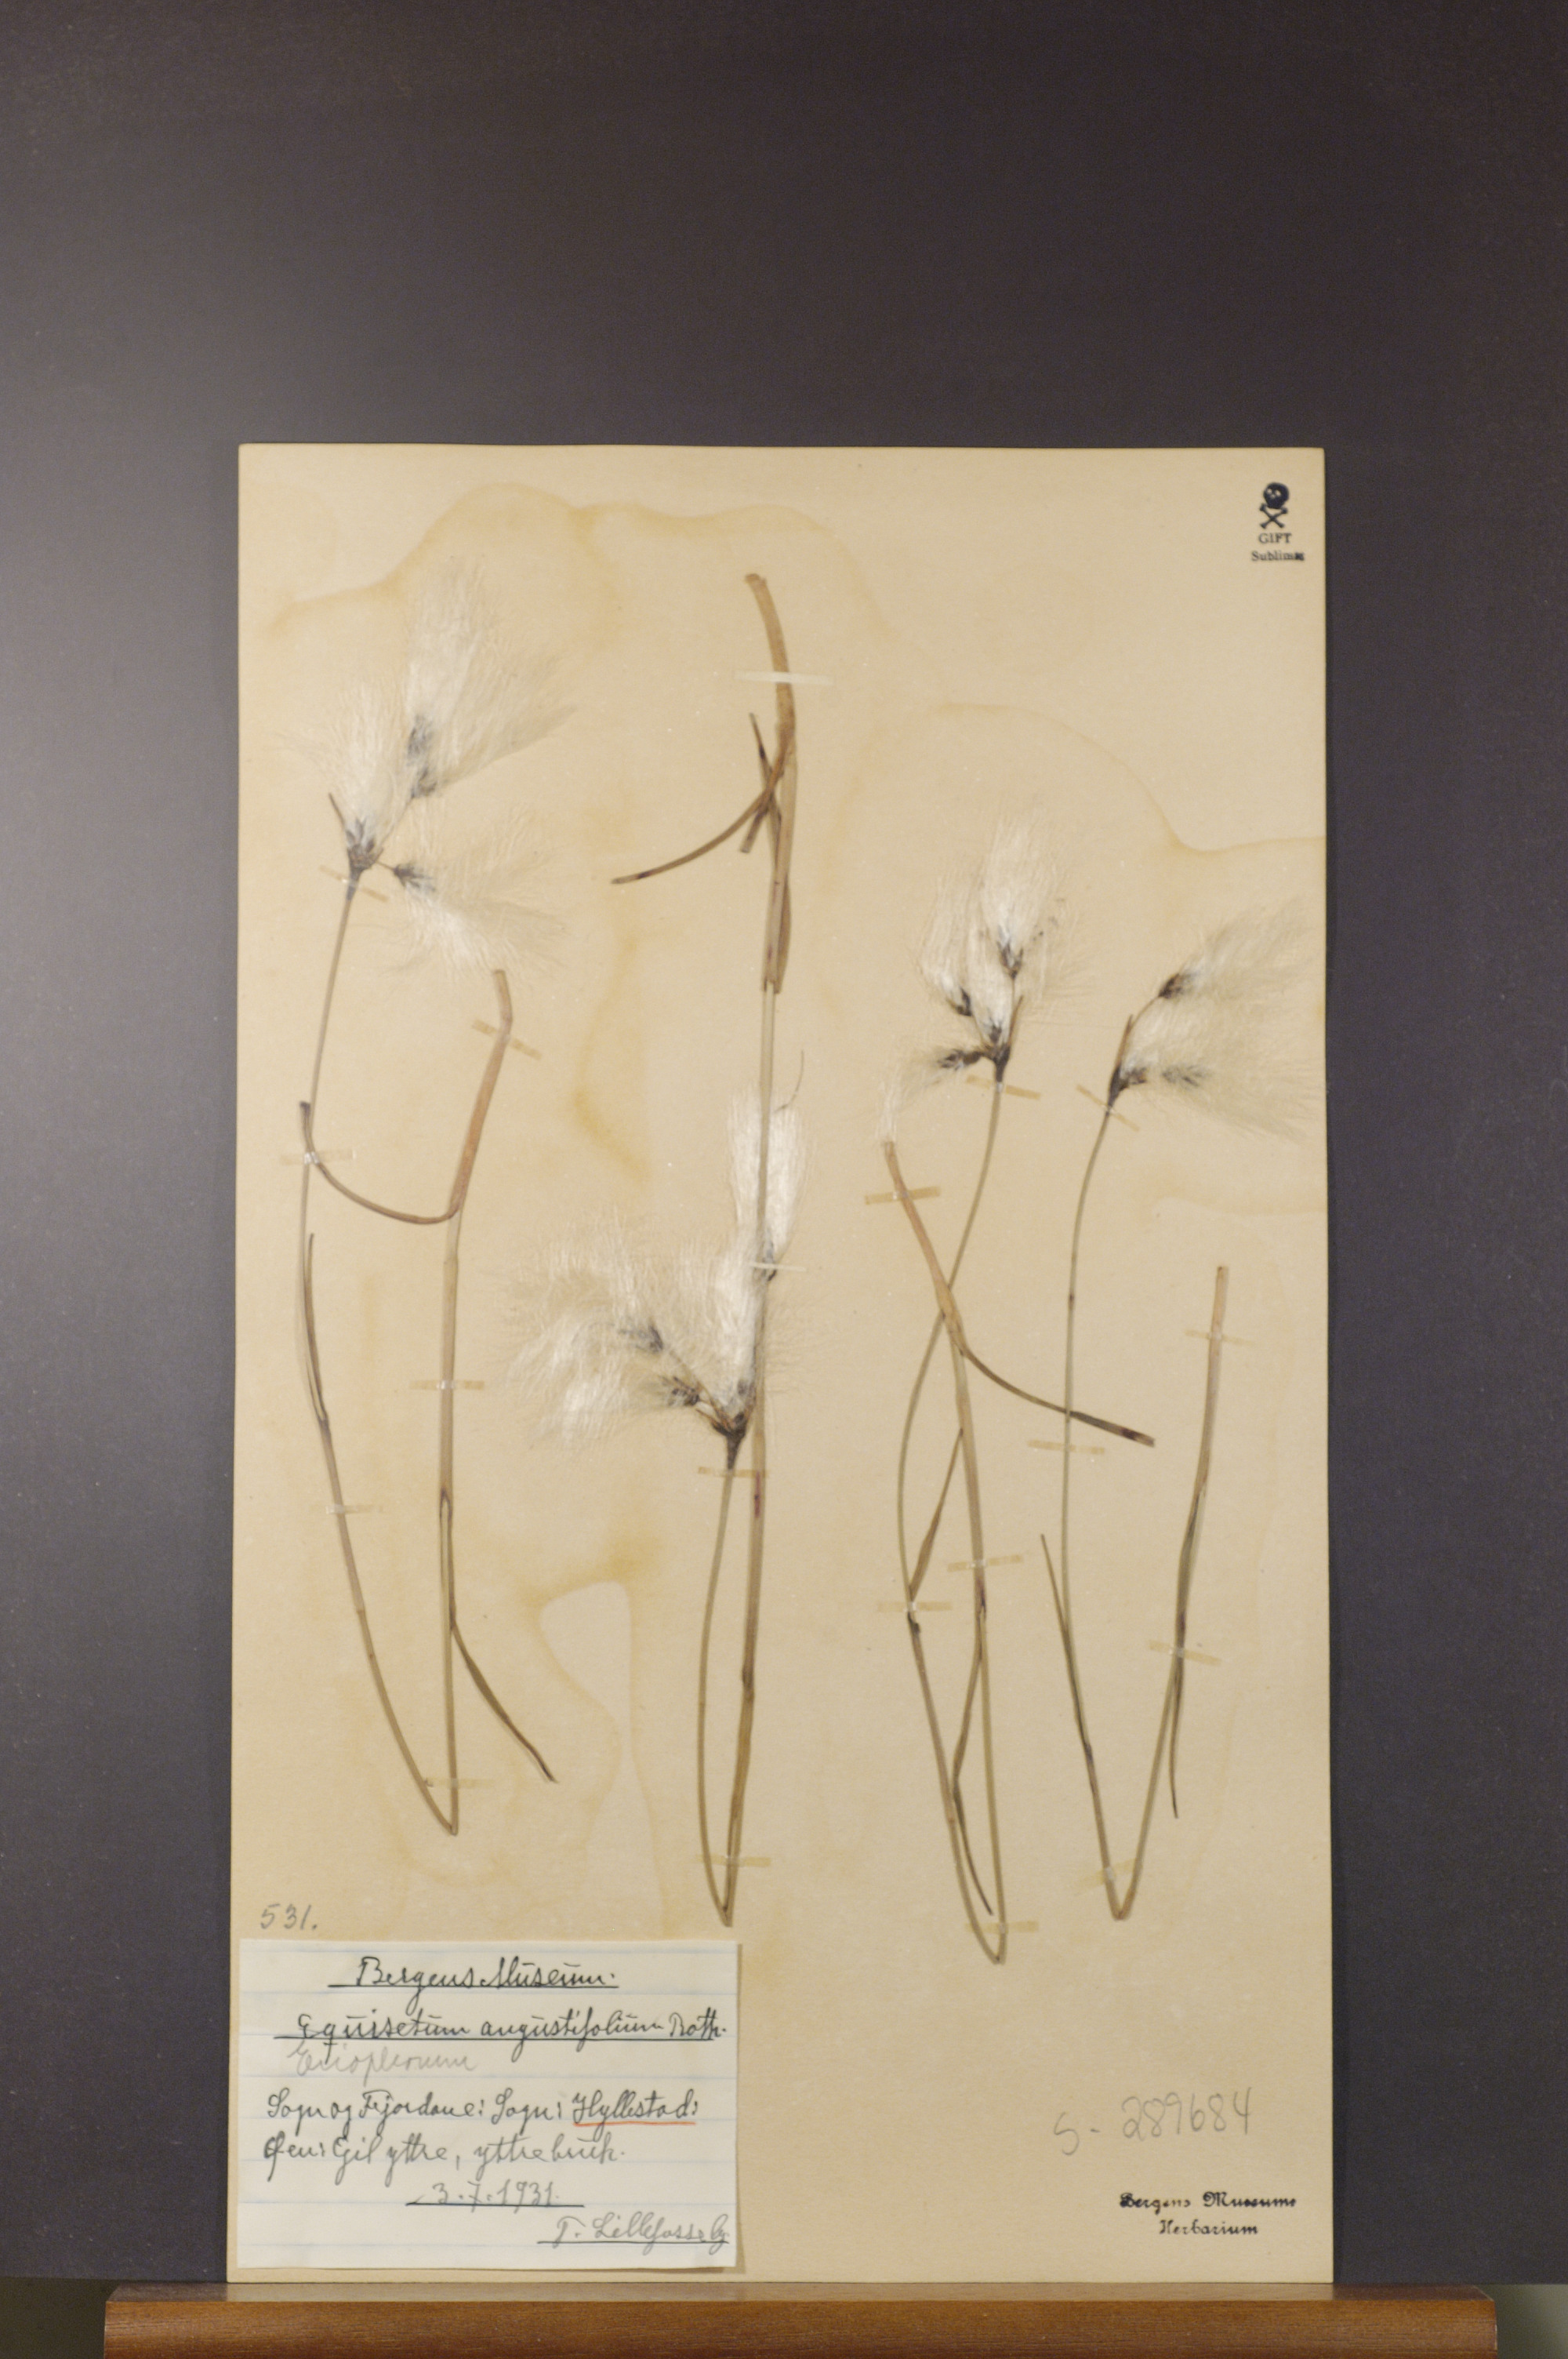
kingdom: Plantae
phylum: Tracheophyta
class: Liliopsida
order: Poales
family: Cyperaceae
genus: Eriophorum
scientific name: Eriophorum angustifolium
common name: Common cottongrass
